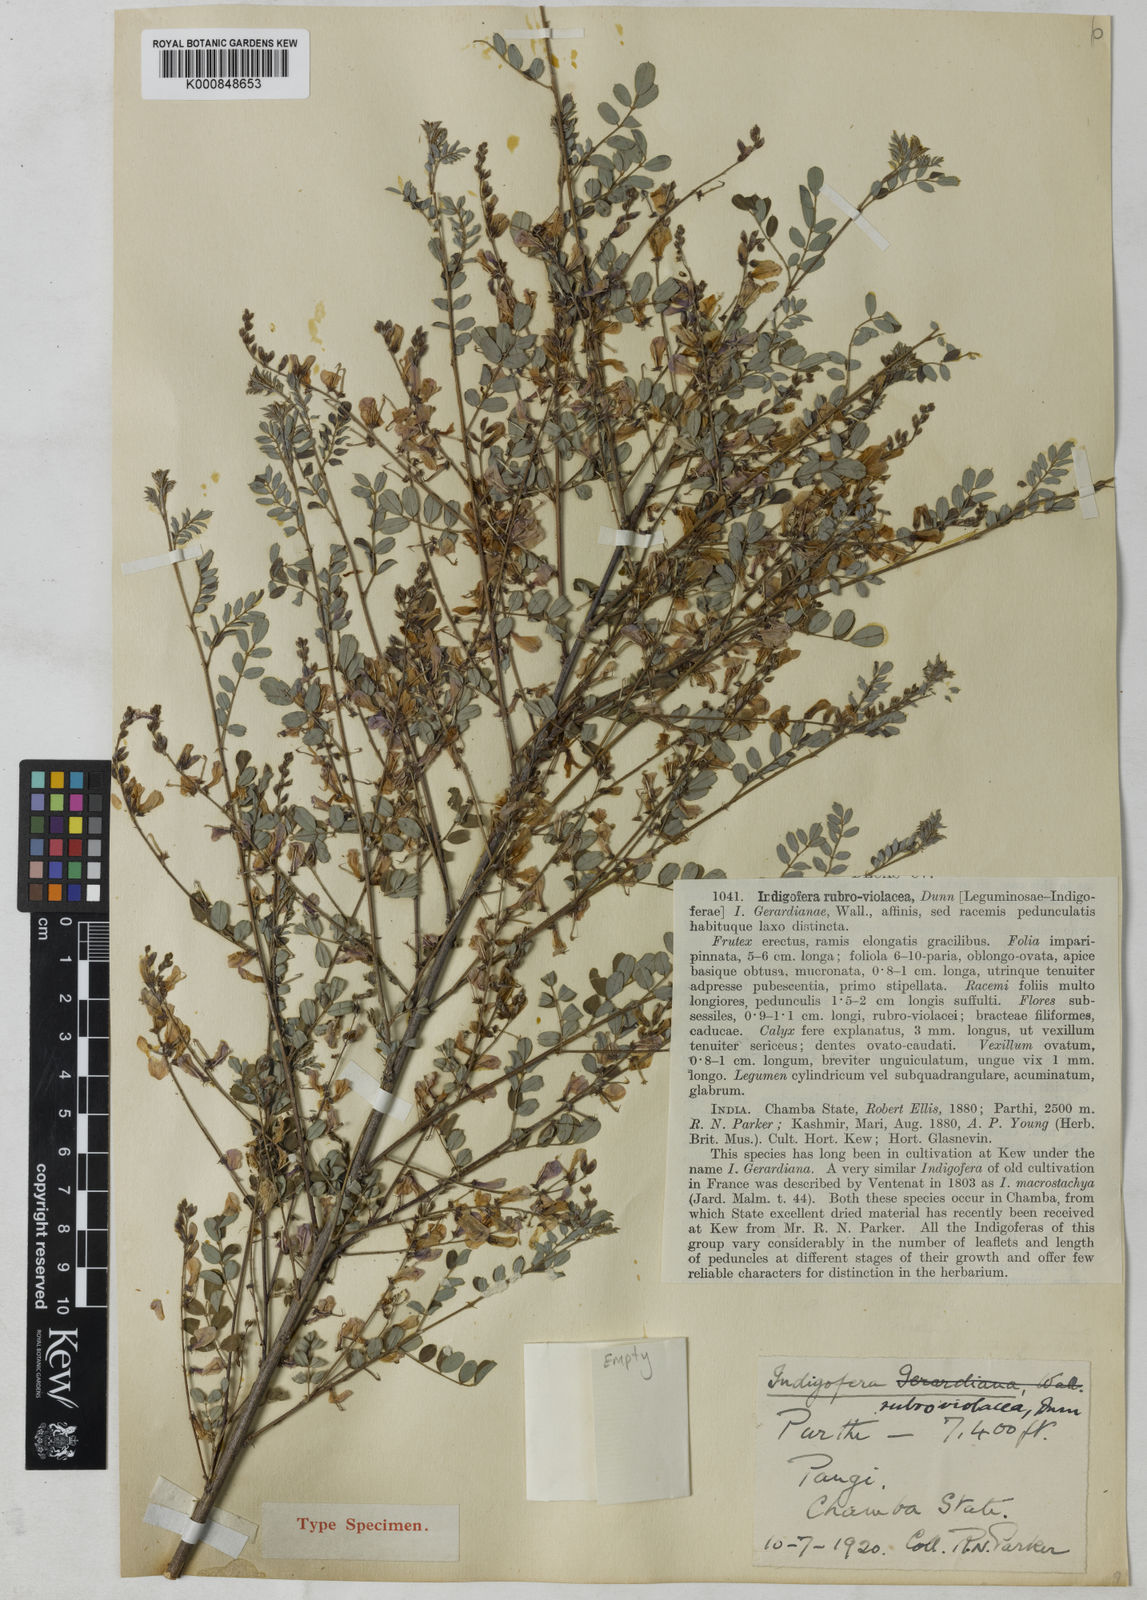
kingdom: Plantae
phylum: Tracheophyta
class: Magnoliopsida
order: Fabales
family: Fabaceae
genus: Indigofera
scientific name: Indigofera heterantha
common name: Himalayan indigo
